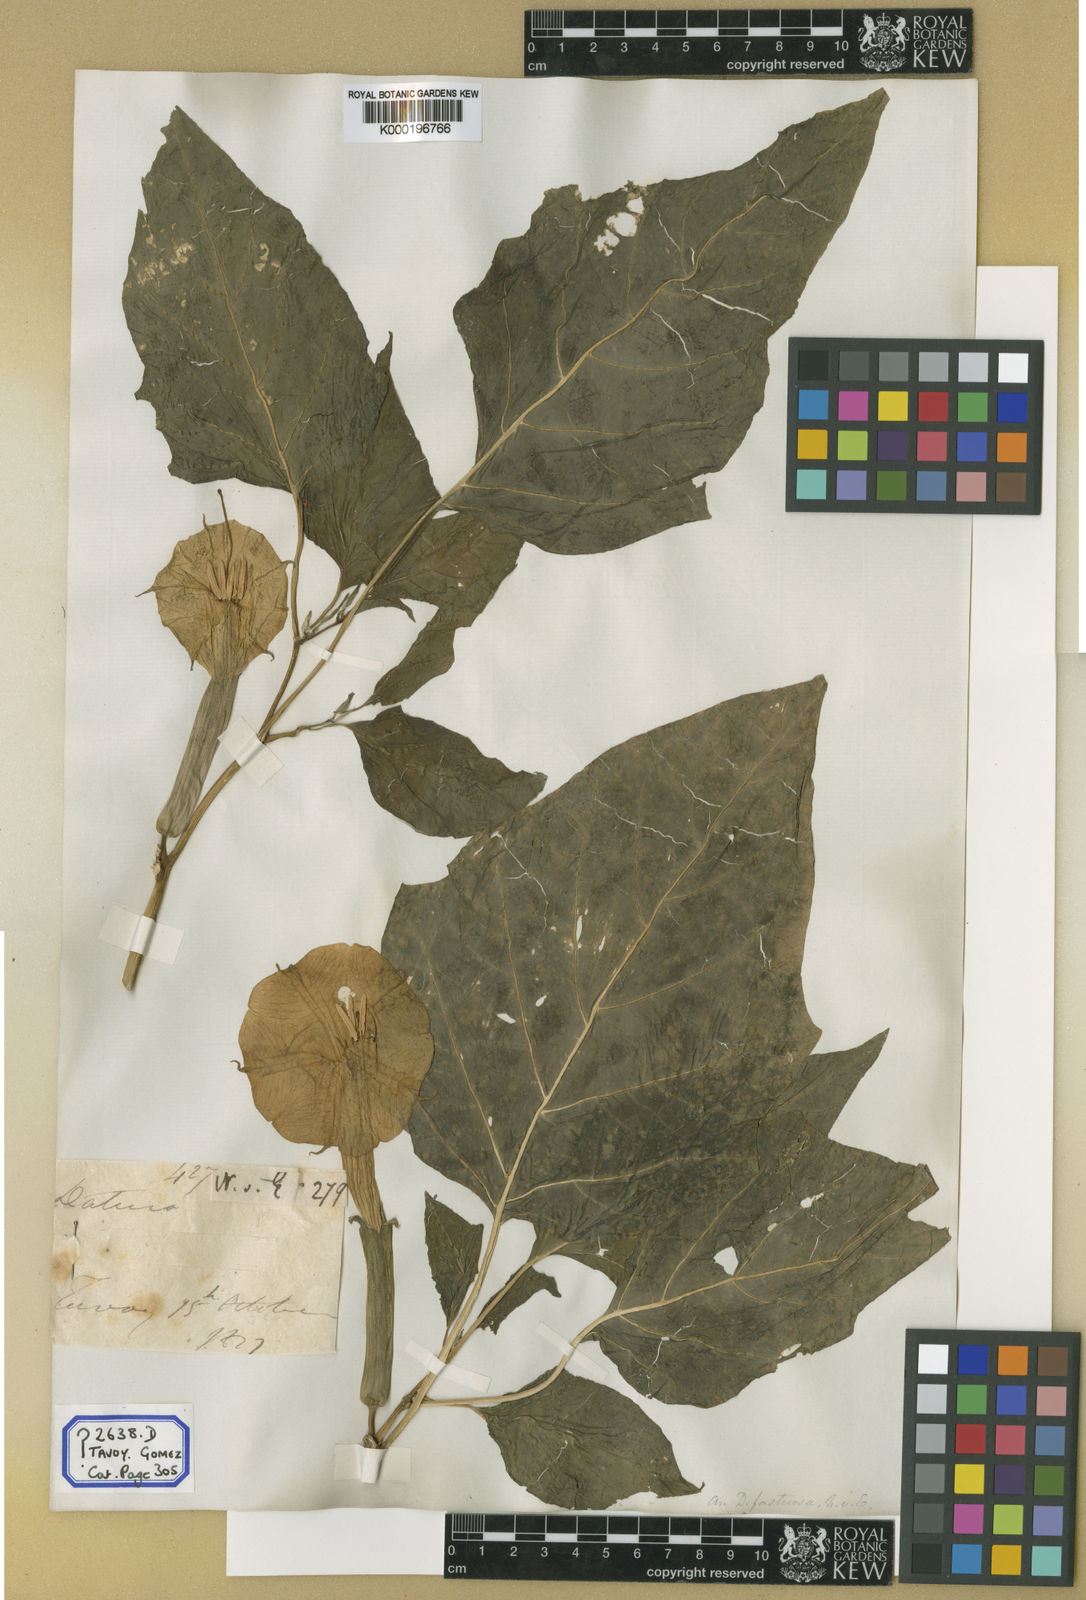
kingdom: Plantae
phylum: Tracheophyta
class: Magnoliopsida
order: Solanales
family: Solanaceae
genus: Datura
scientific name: Datura metel
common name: Jimsonweed
